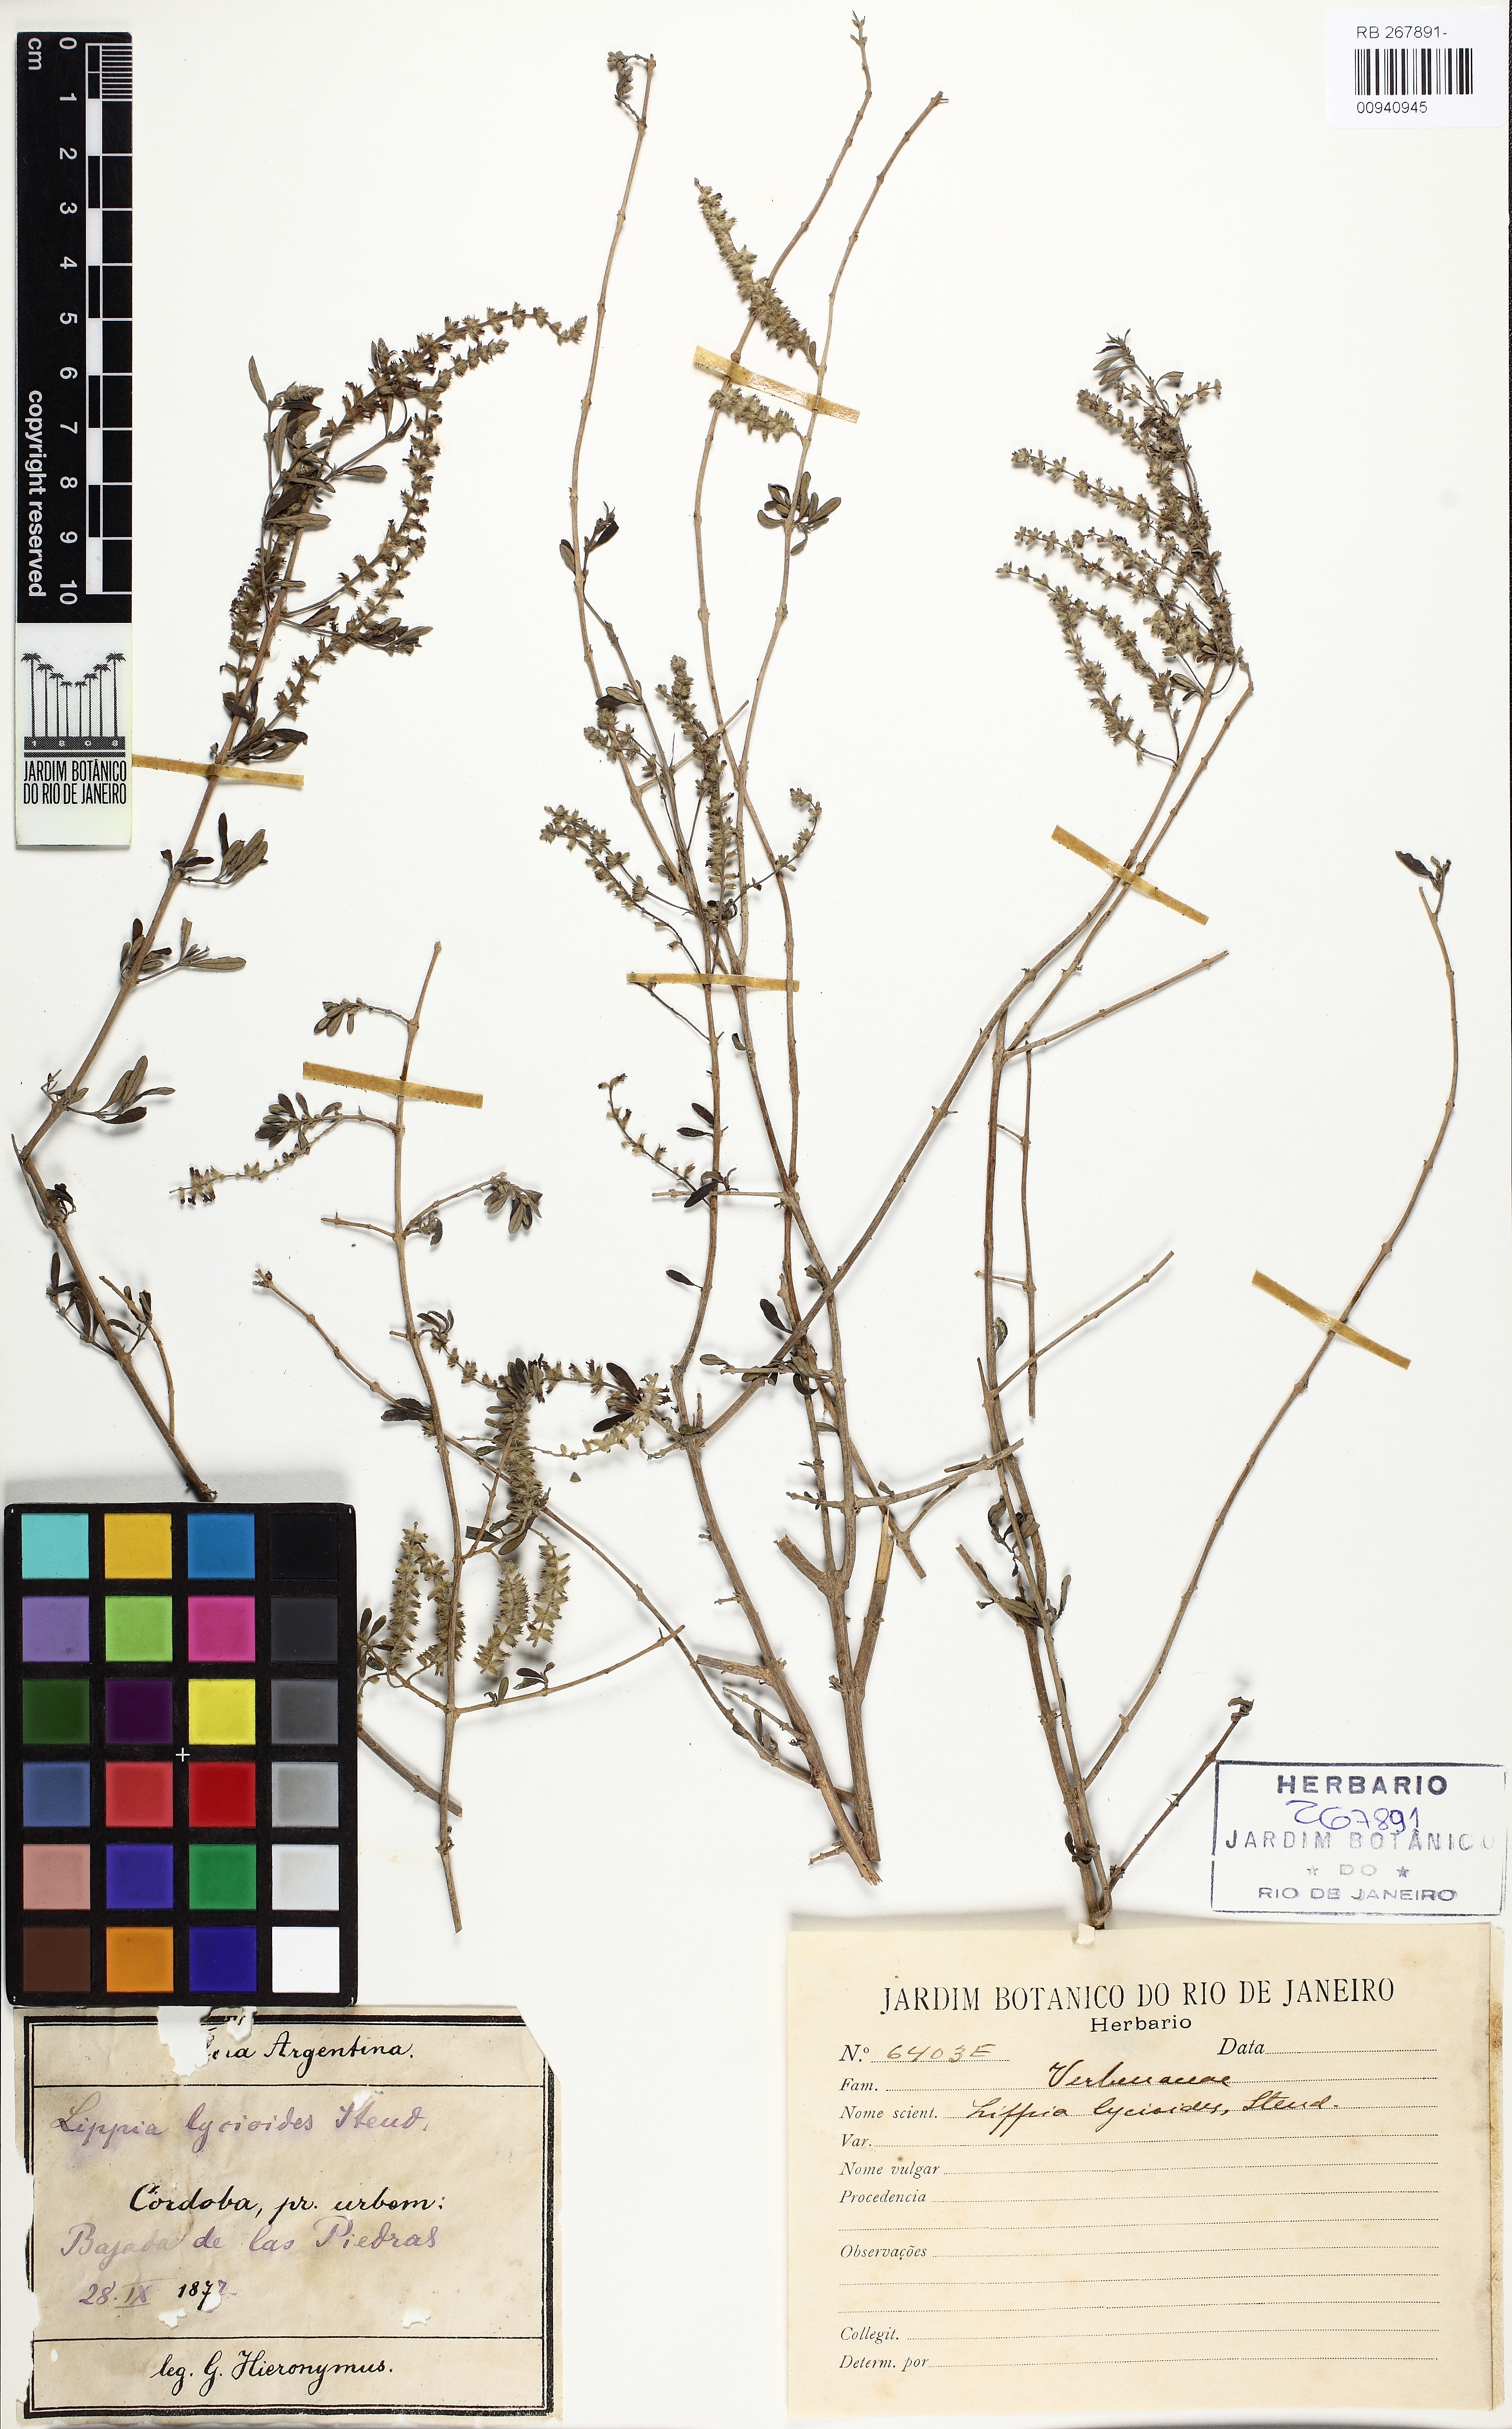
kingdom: Plantae
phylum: Tracheophyta
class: Magnoliopsida
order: Lamiales
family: Verbenaceae
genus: Aloysia
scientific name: Aloysia gratissima
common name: Common bee-brush
